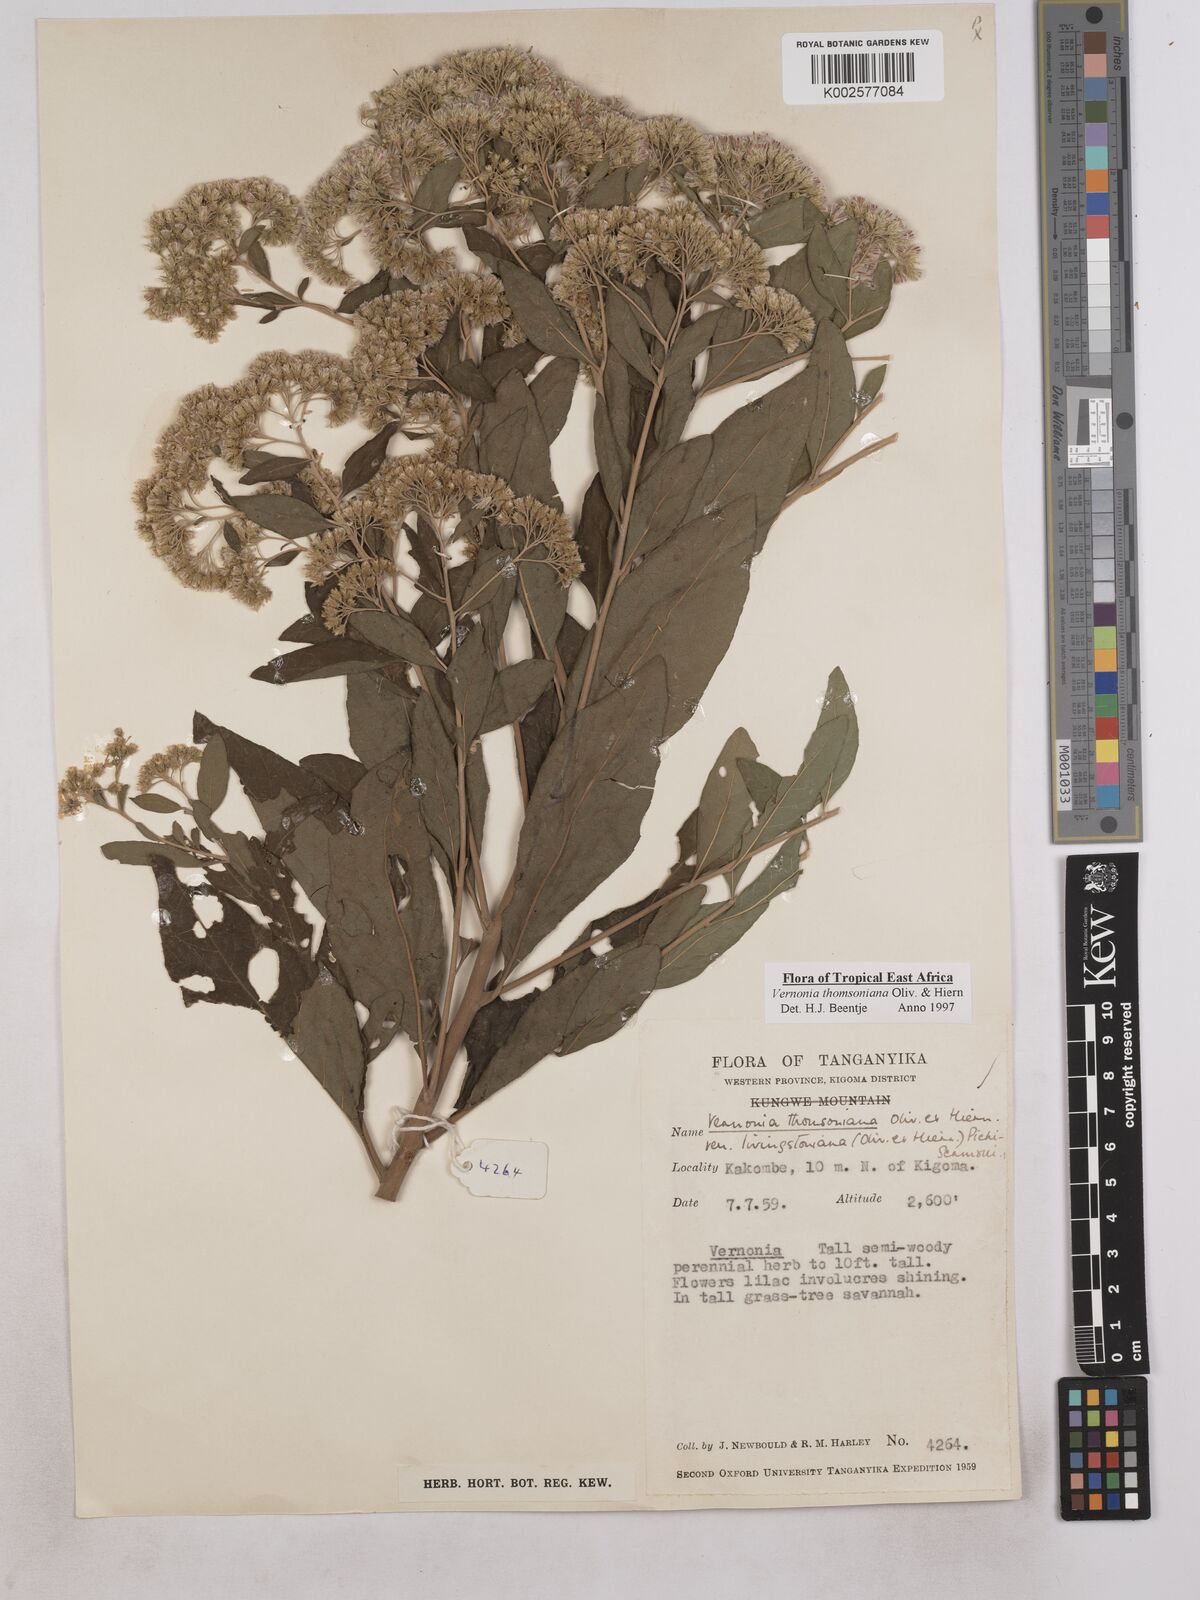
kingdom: Plantae
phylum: Tracheophyta
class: Magnoliopsida
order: Asterales
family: Asteraceae
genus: Gymnanthemum
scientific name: Gymnanthemum thomsonianum
